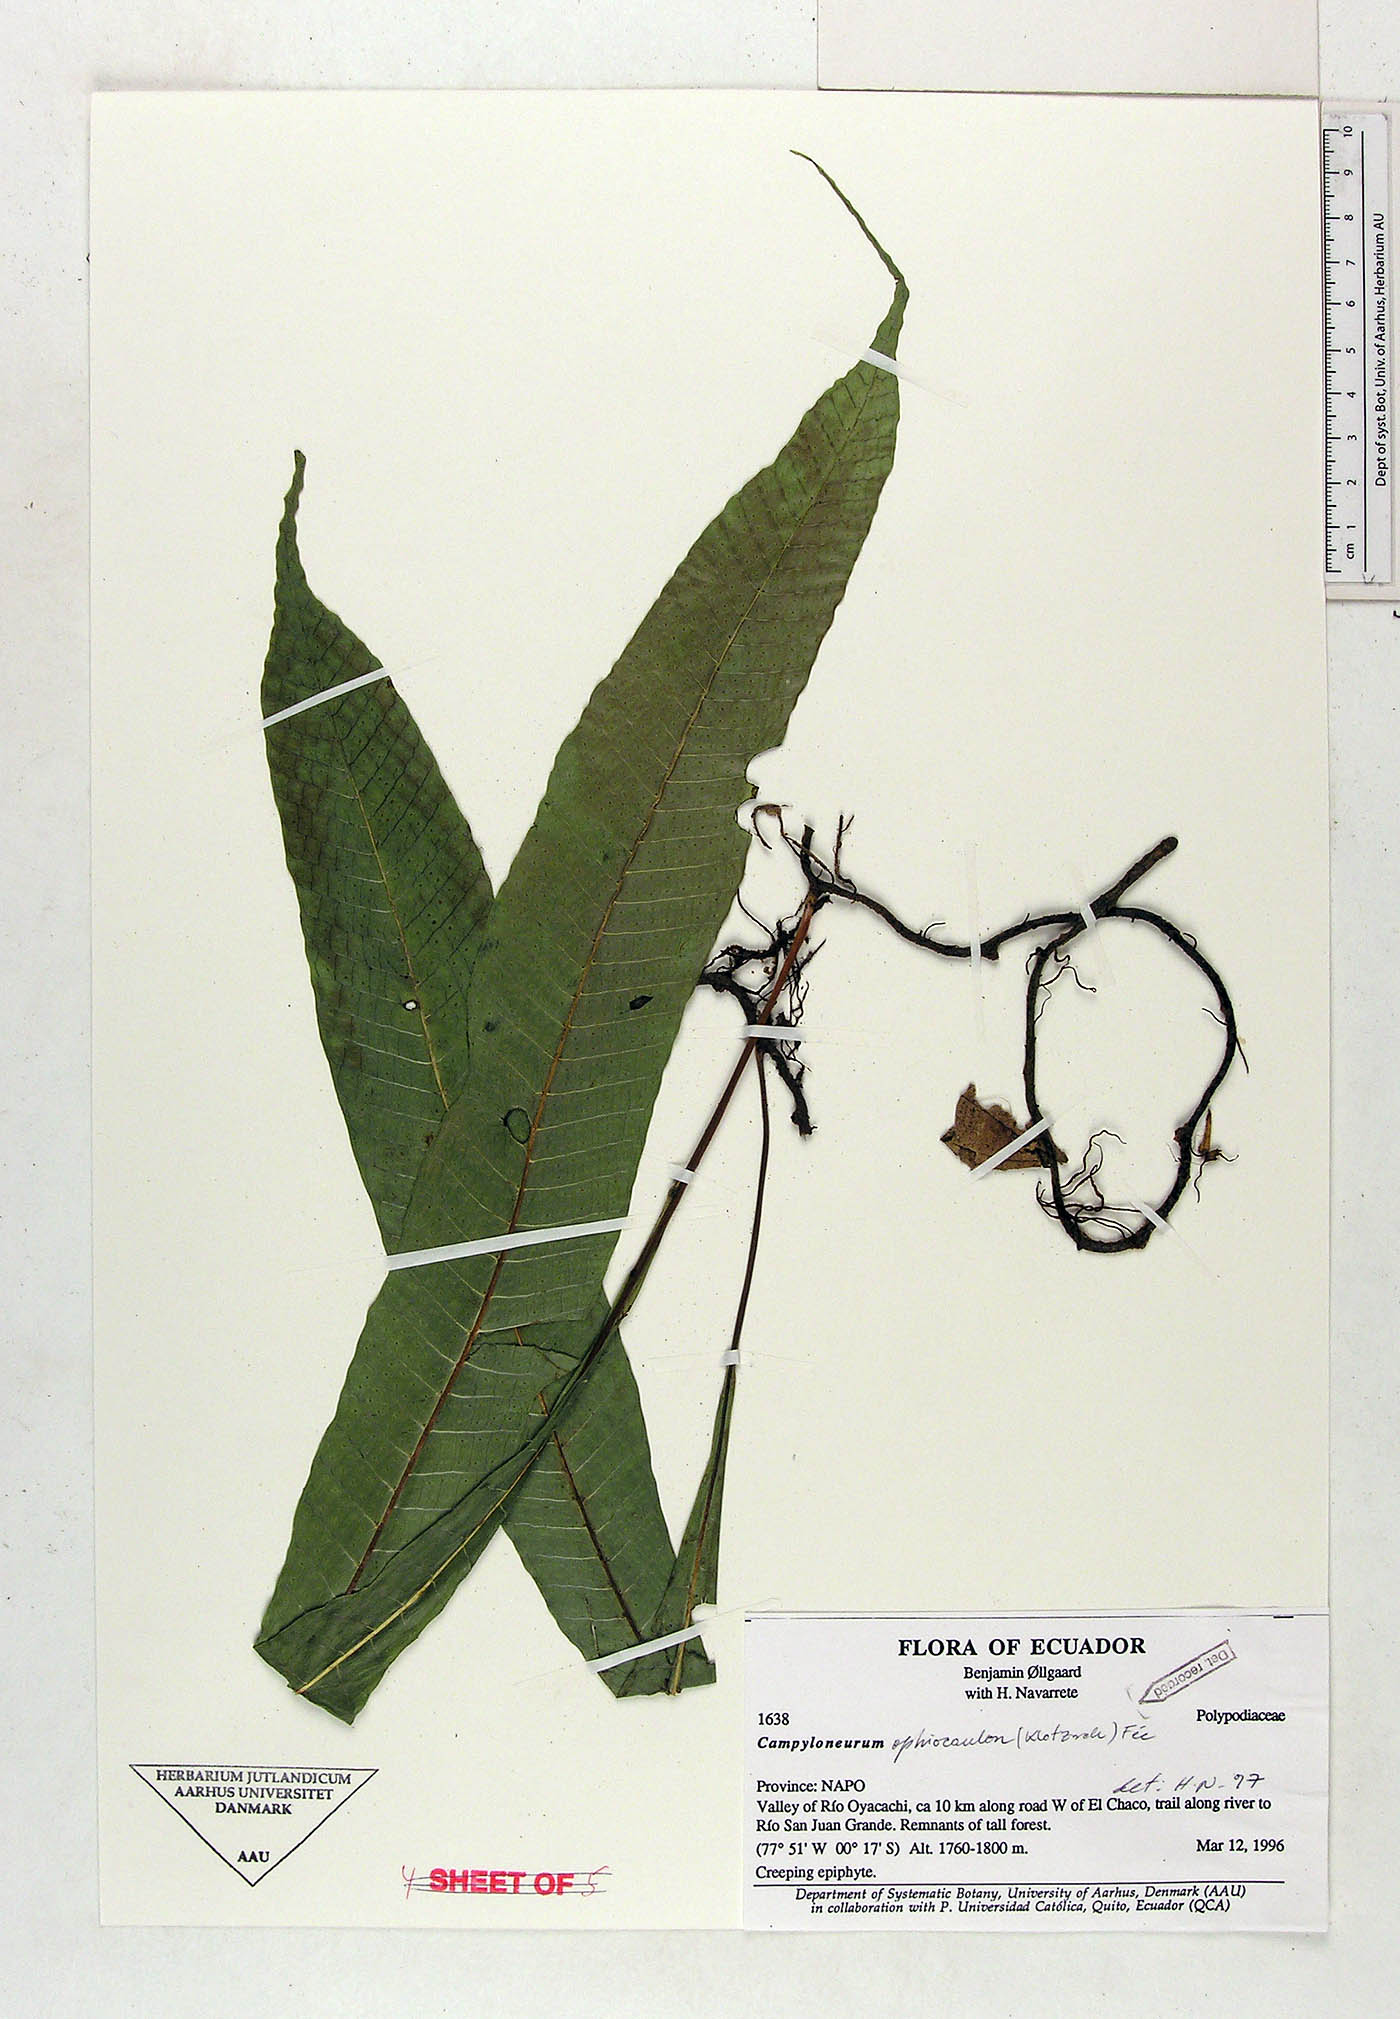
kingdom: Plantae
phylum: Tracheophyta
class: Polypodiopsida
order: Polypodiales
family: Polypodiaceae
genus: Campyloneurum
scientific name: Campyloneurum ophiocaulon
